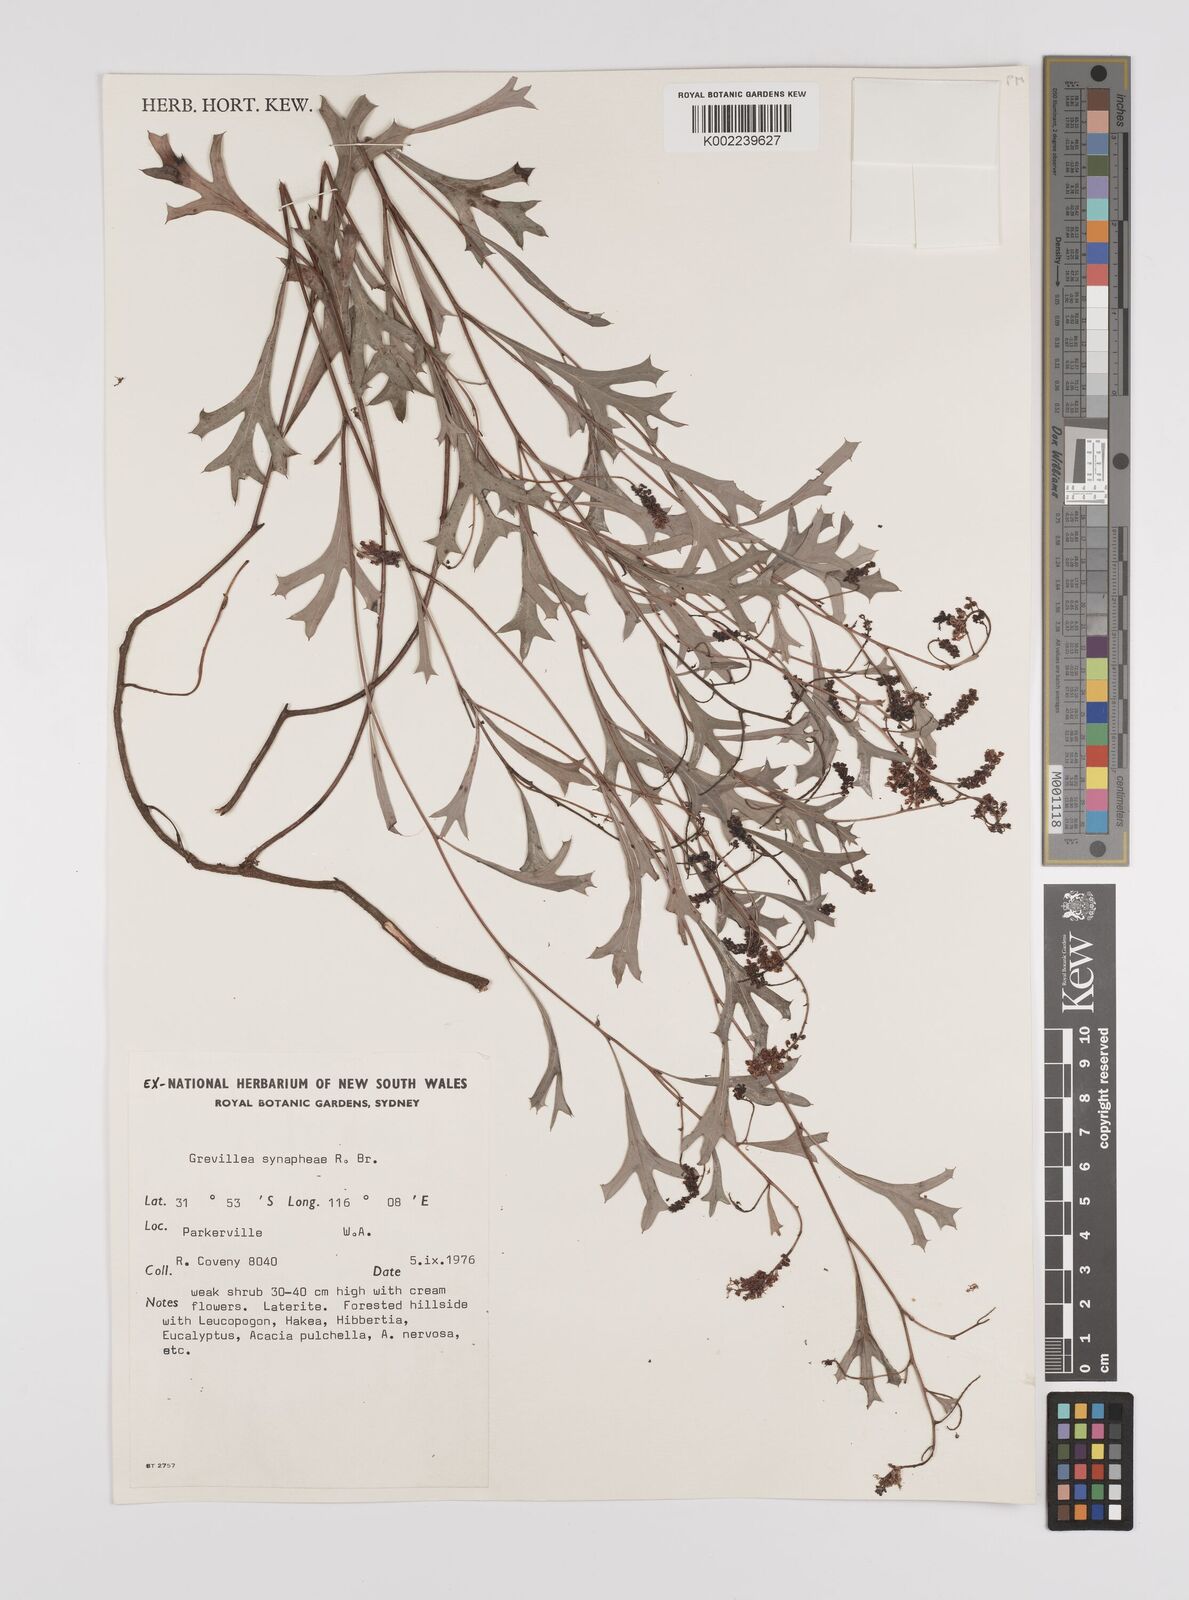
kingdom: Plantae
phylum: Tracheophyta
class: Magnoliopsida
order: Proteales
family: Proteaceae
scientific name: Proteaceae
